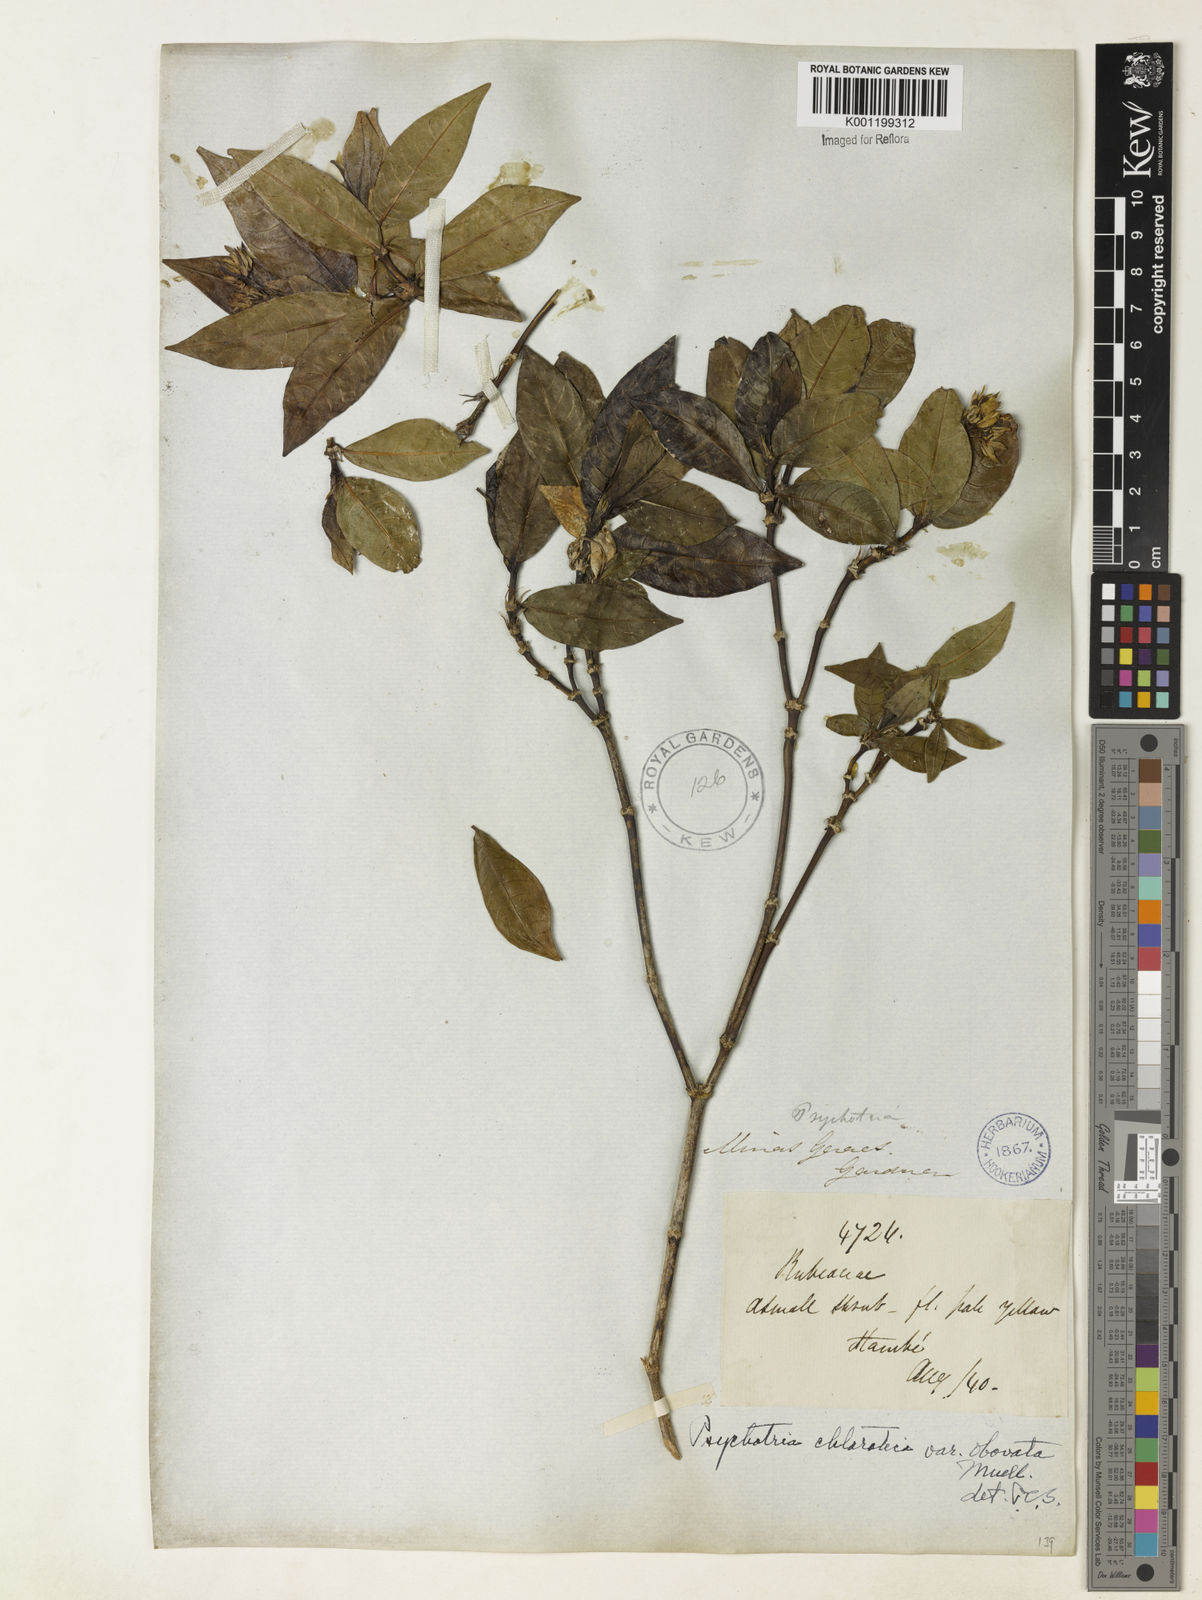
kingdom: Plantae
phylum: Tracheophyta
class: Magnoliopsida
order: Gentianales
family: Rubiaceae
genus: Palicourea
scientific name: Palicourea violacea
